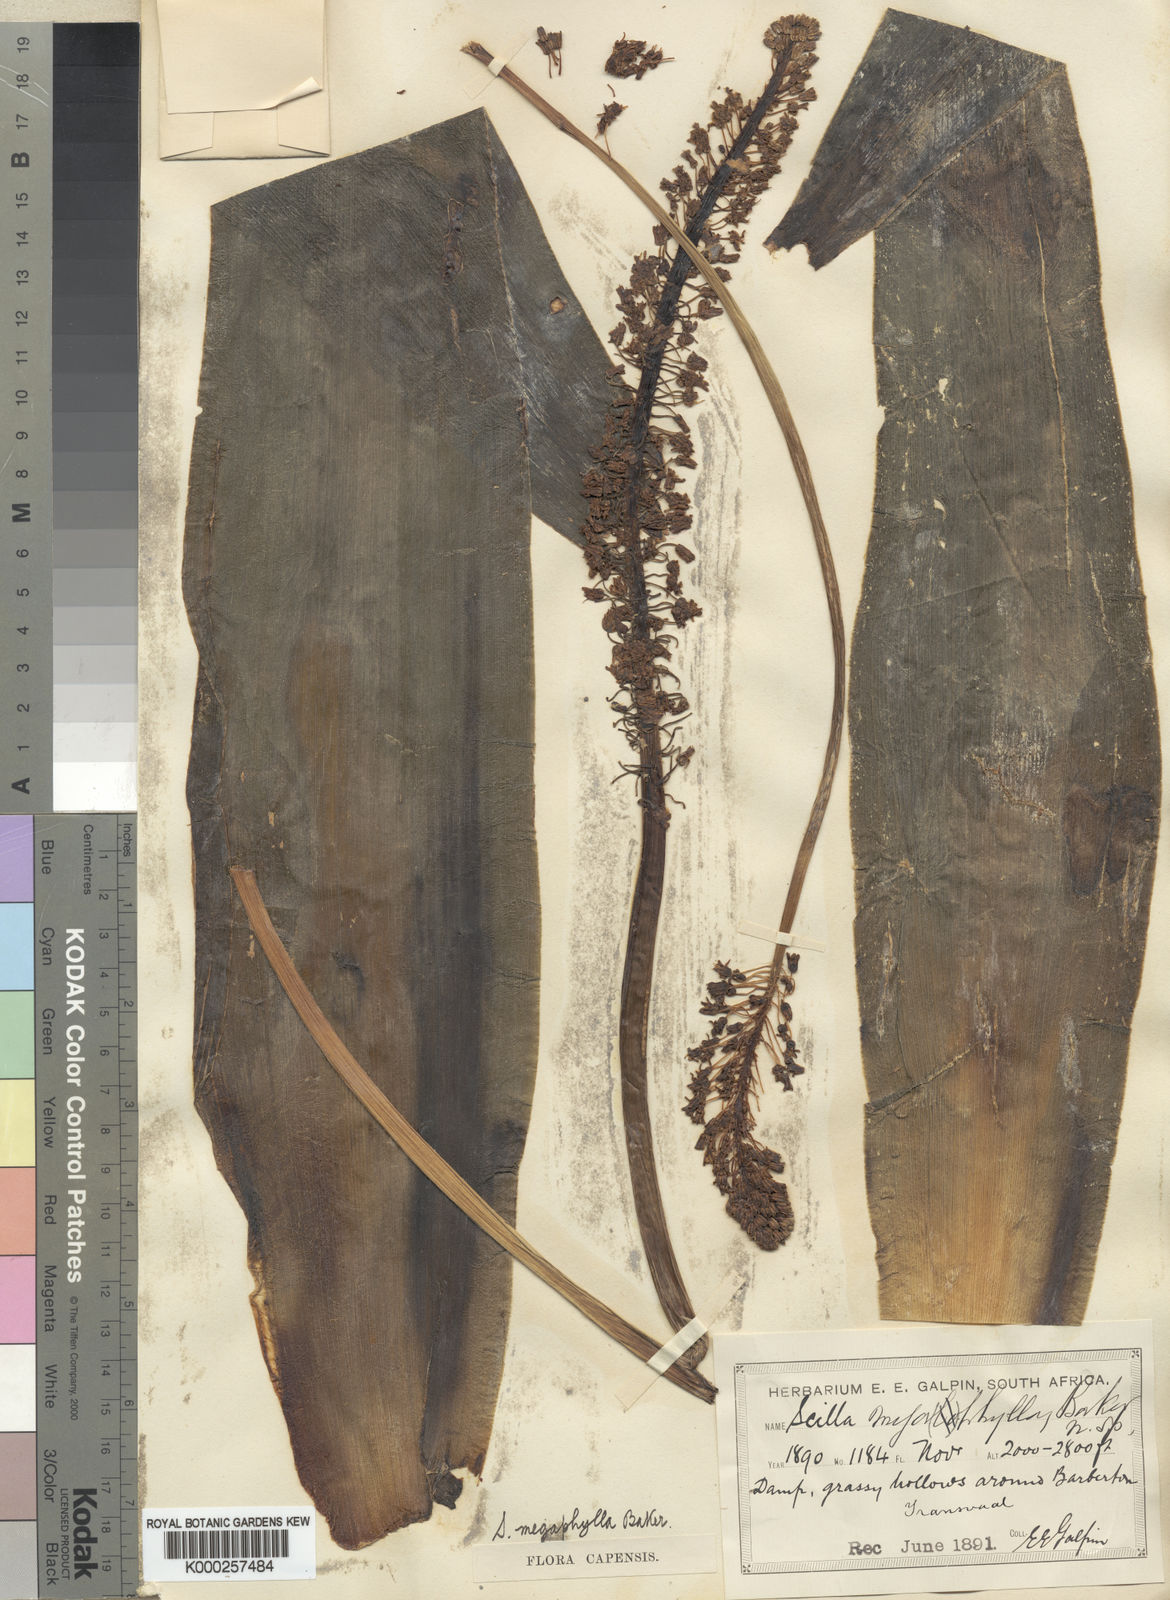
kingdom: Plantae
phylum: Tracheophyta
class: Liliopsida
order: Asparagales
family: Asparagaceae
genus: Ledebouria
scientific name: Ledebouria floribunda
